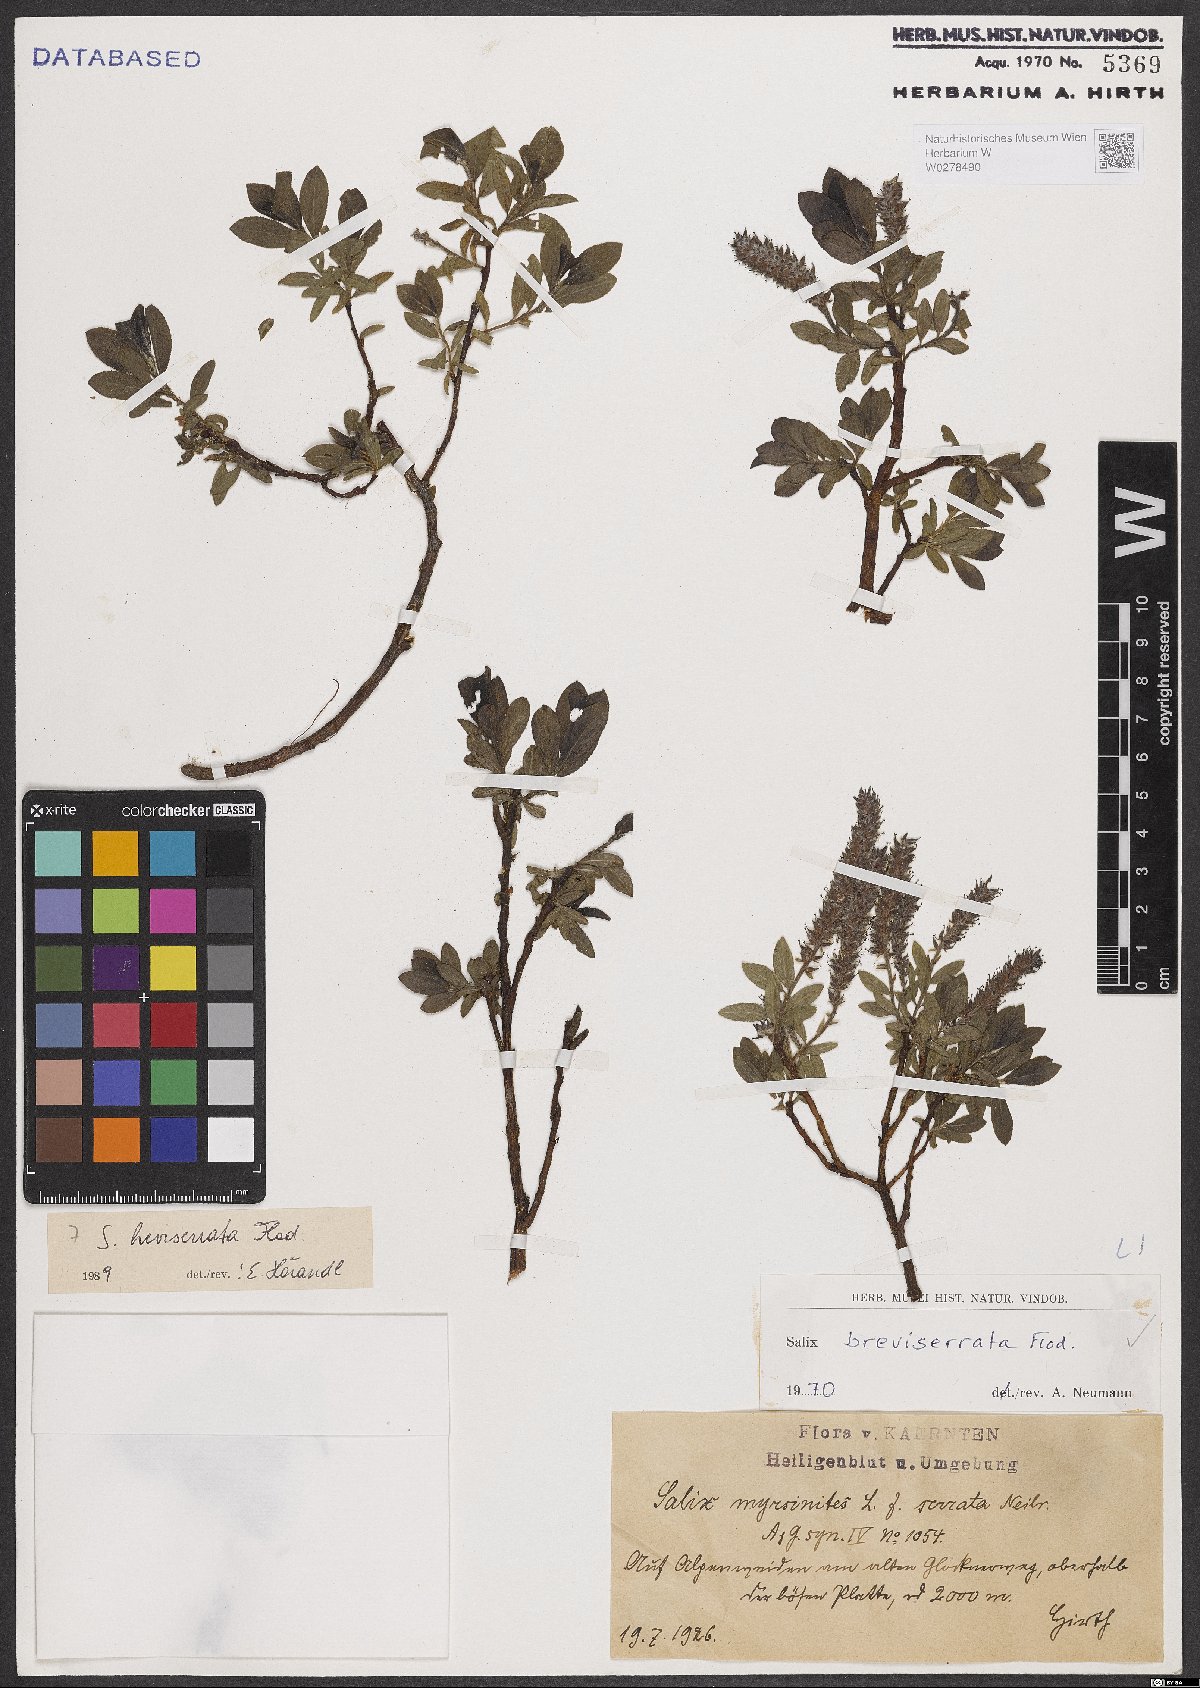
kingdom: Plantae
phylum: Tracheophyta
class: Magnoliopsida
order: Malpighiales
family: Salicaceae
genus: Salix
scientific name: Salix breviserrata
